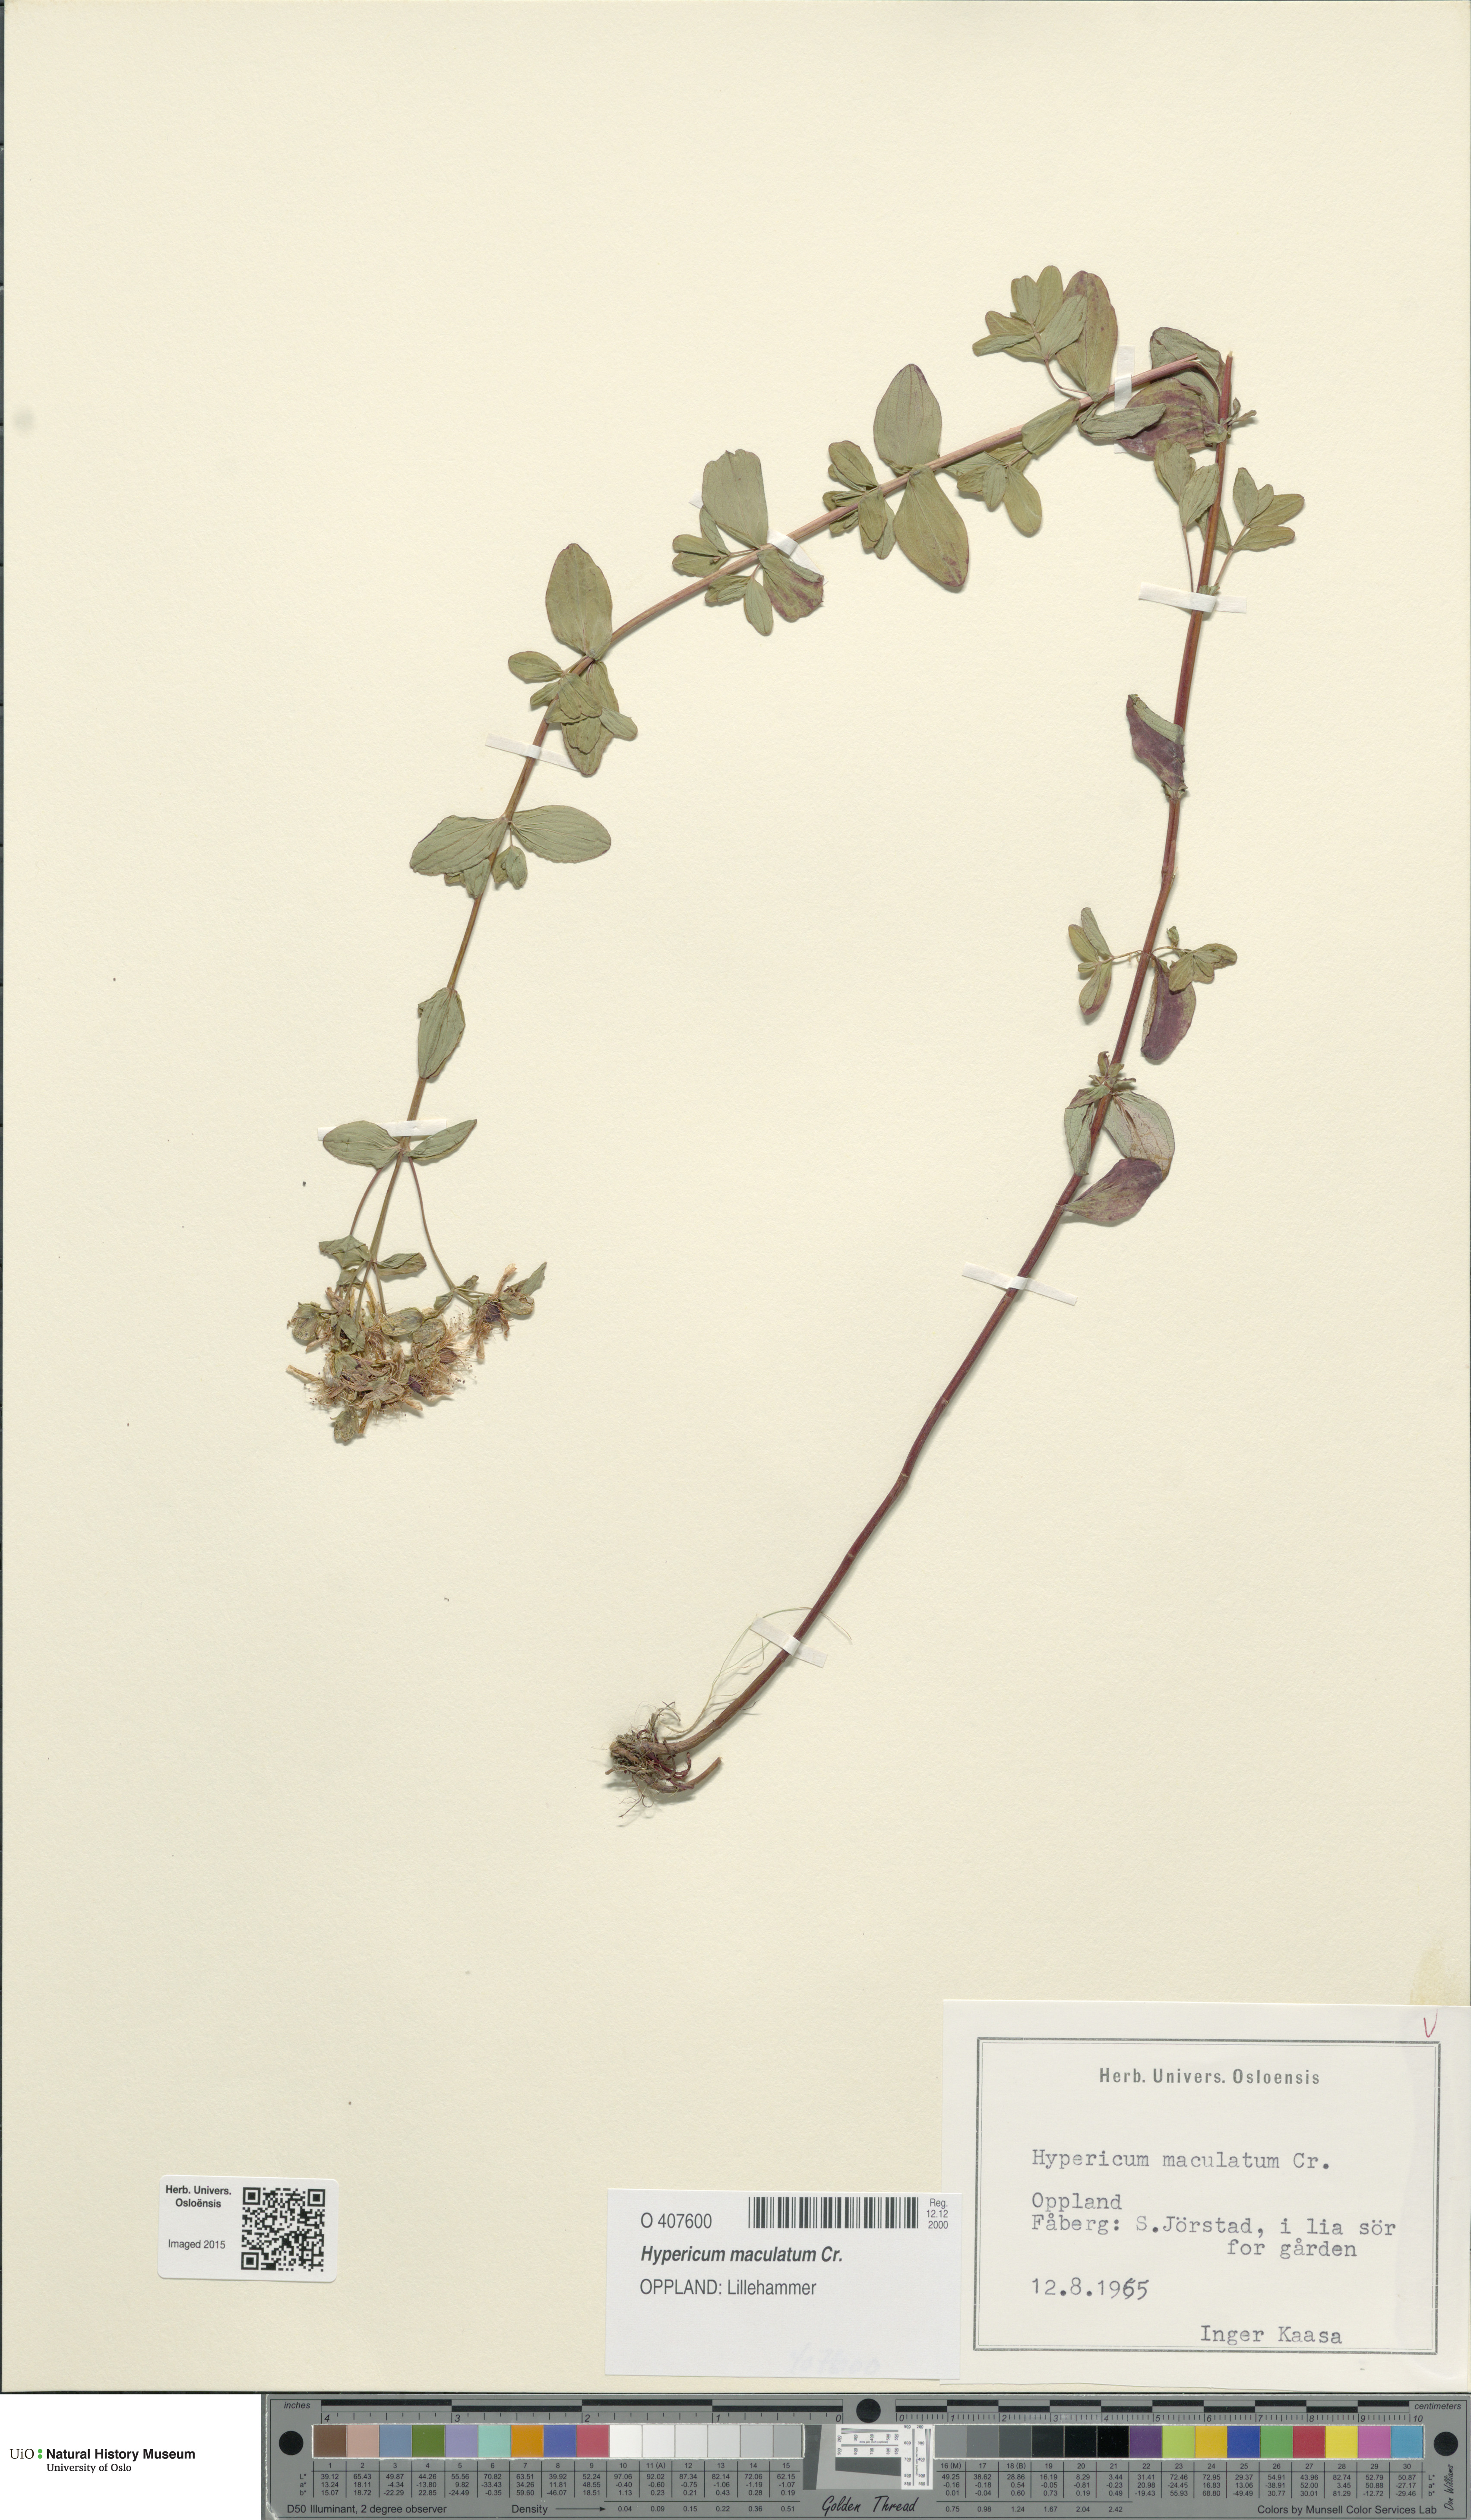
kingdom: Plantae
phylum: Tracheophyta
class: Magnoliopsida
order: Malpighiales
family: Hypericaceae
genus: Hypericum
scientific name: Hypericum maculatum
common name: Imperforate st. john's-wort
